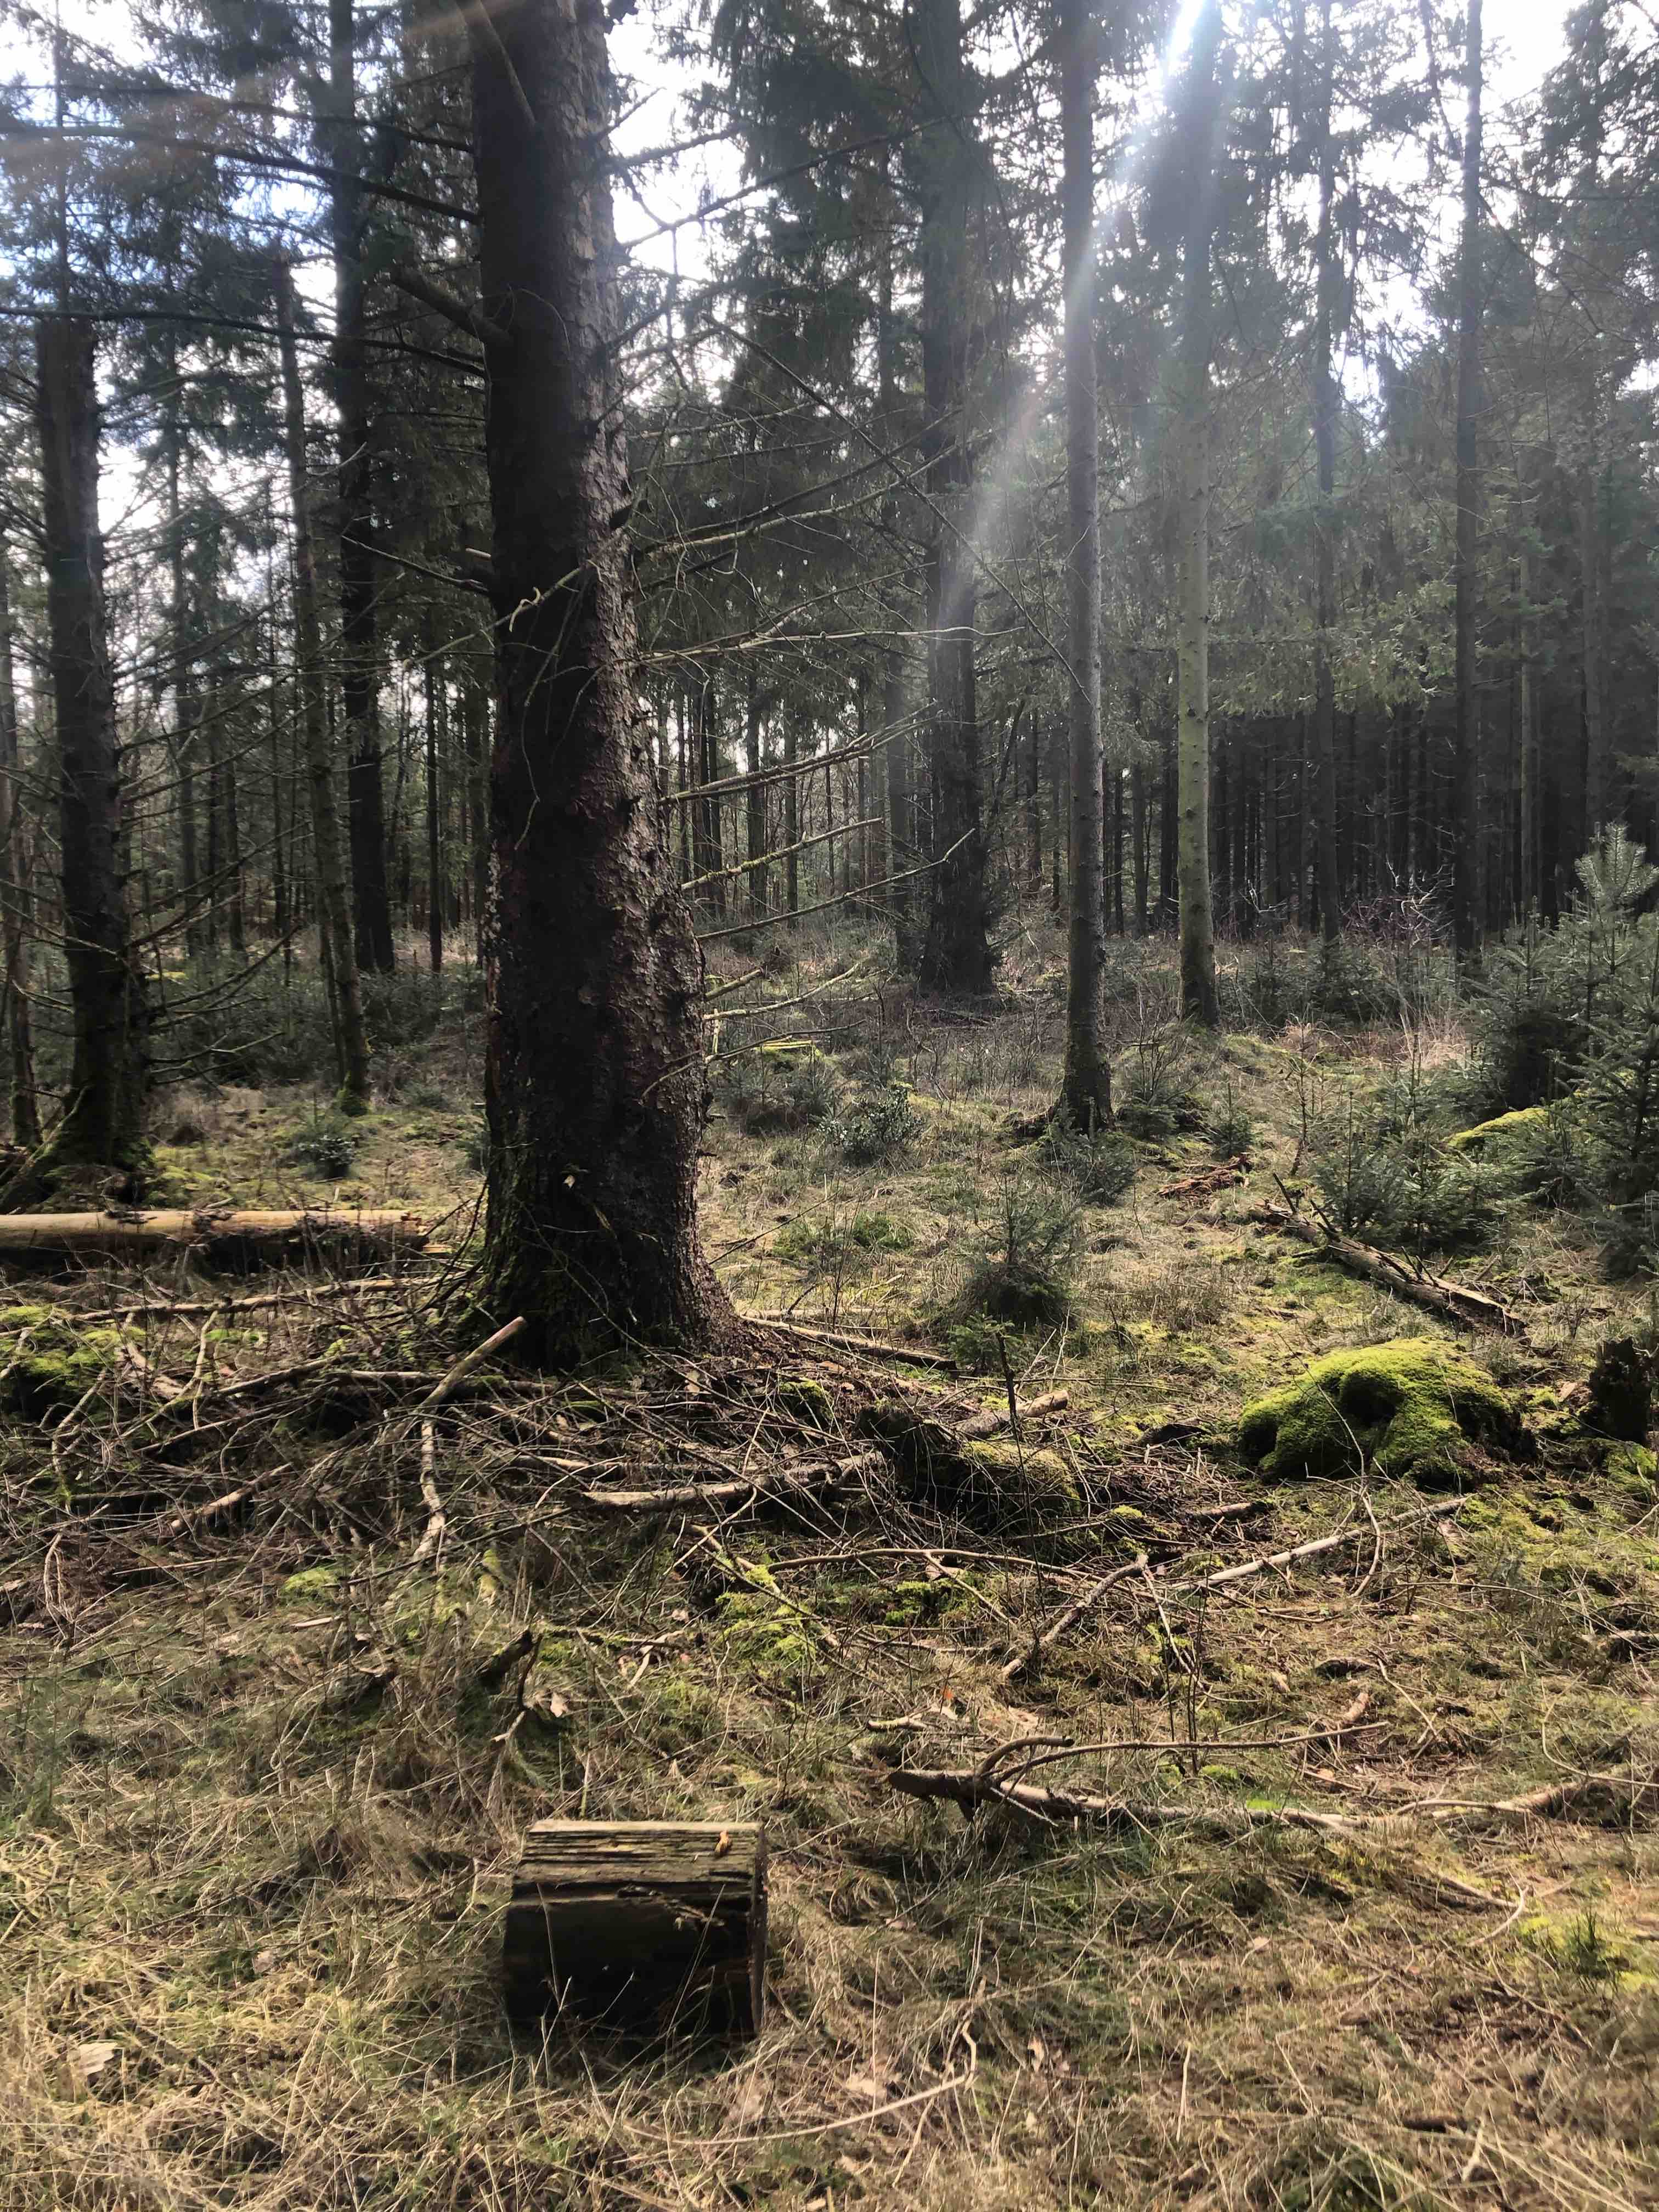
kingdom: Fungi
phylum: Basidiomycota
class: Agaricomycetes
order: Gloeophyllales
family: Gloeophyllaceae
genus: Gloeophyllum
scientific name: Gloeophyllum odoratum
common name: duftende korkhat
